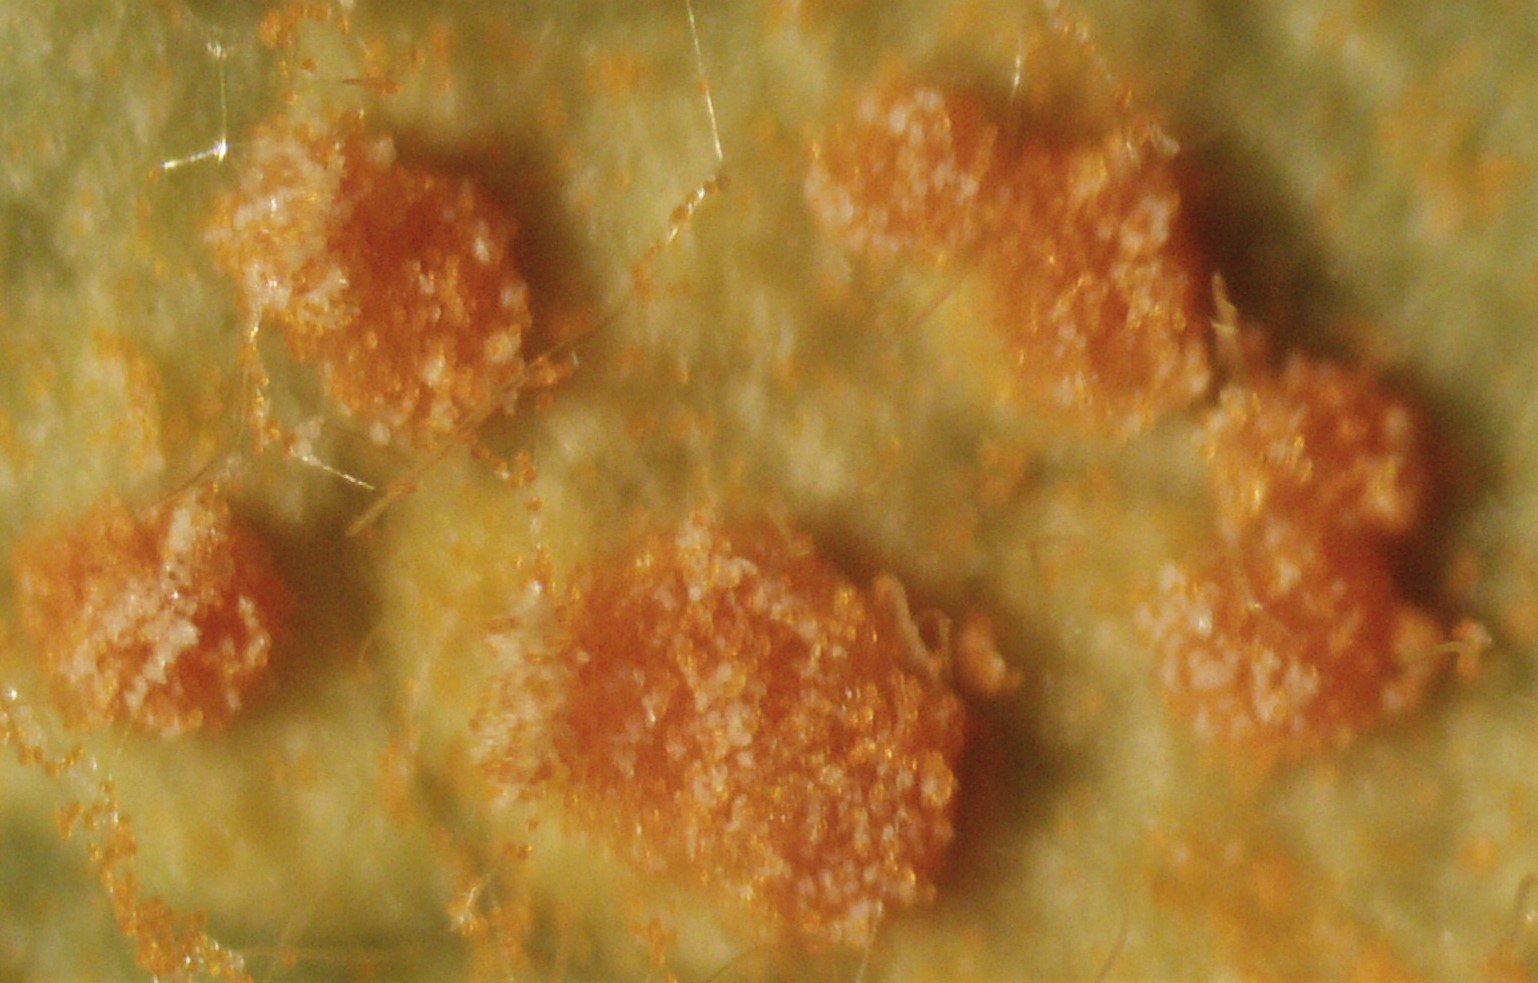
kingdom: Fungi
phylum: Basidiomycota
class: Pucciniomycetes
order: Pucciniales
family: Phragmidiaceae
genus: Phragmidium
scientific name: Phragmidium mucronatum
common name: rose-flercellerust
